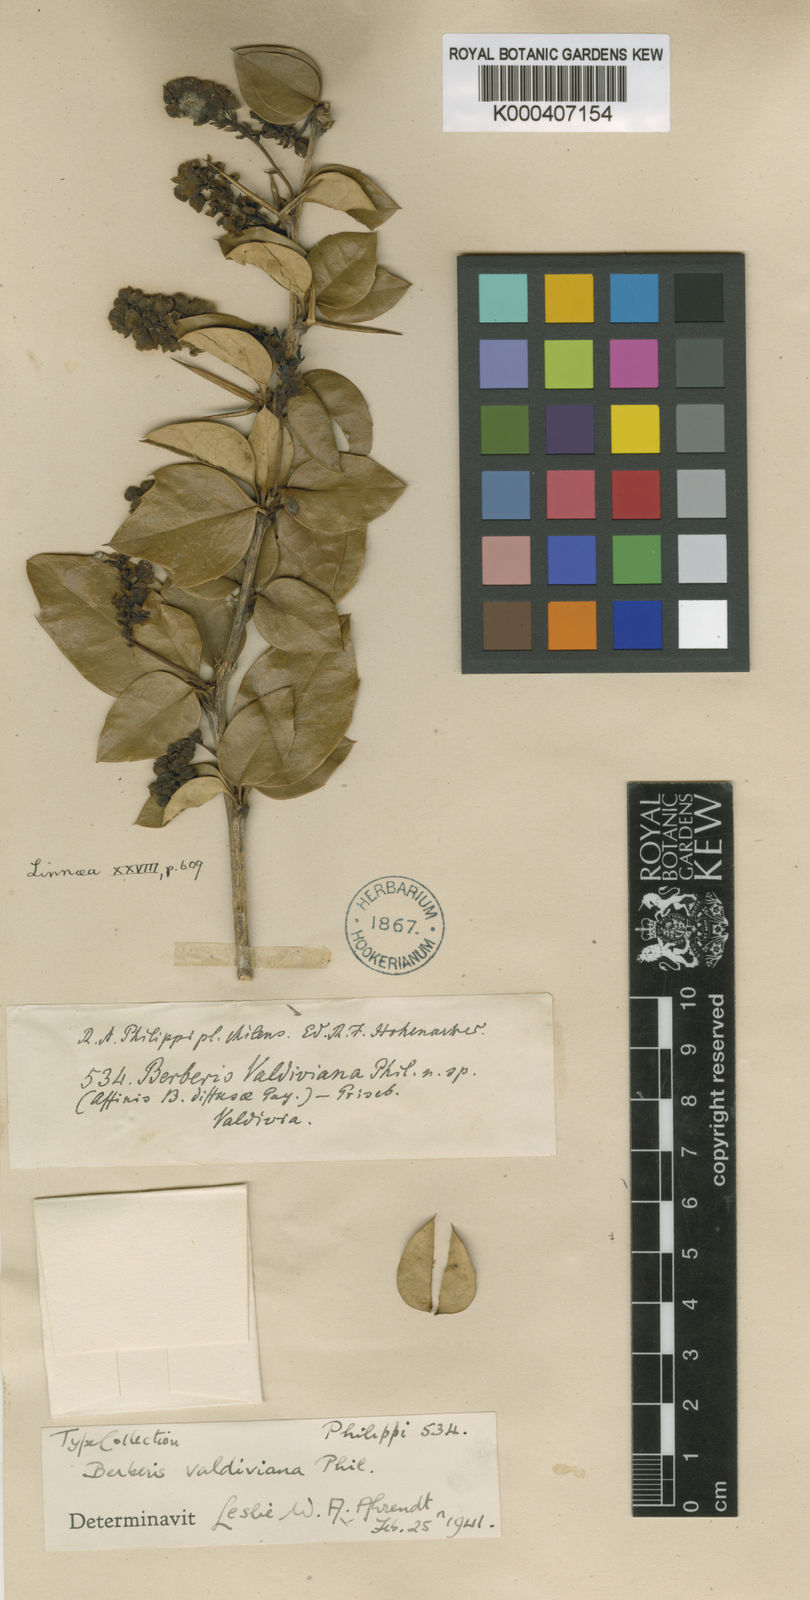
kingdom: Plantae
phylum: Tracheophyta
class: Magnoliopsida
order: Ranunculales
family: Berberidaceae
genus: Berberis
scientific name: Berberis valdiviana
